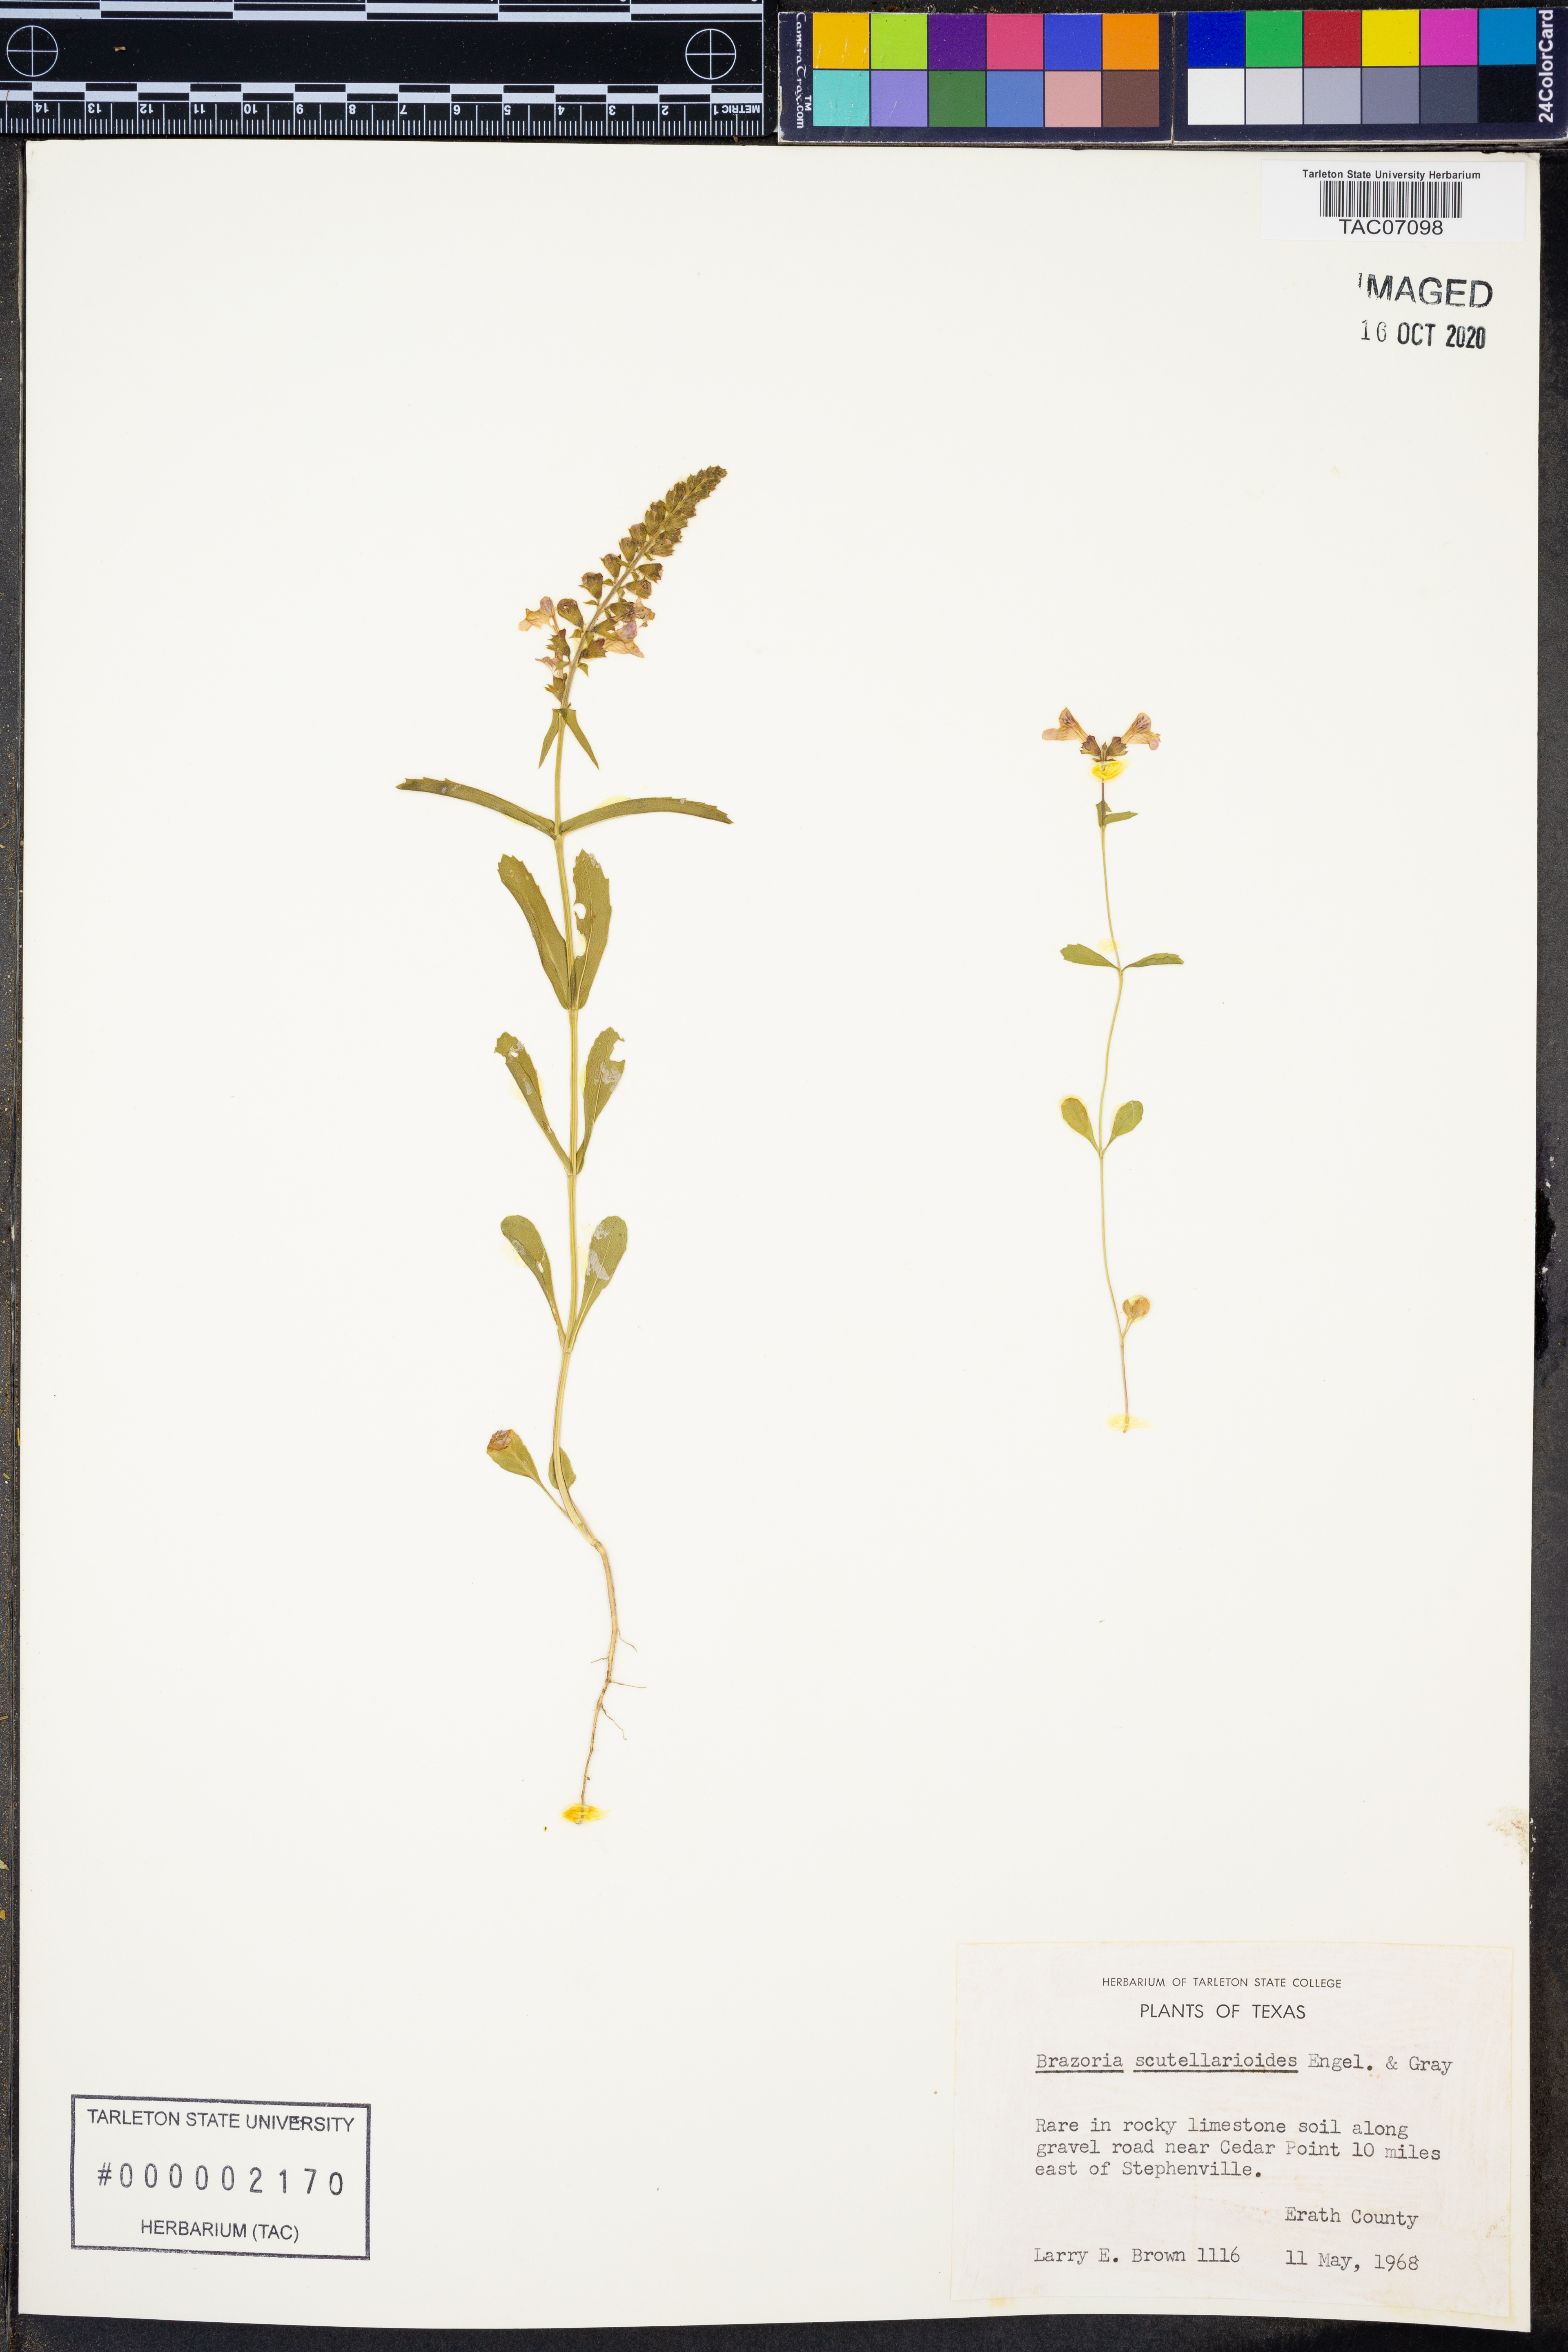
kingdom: Plantae
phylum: Tracheophyta
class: Magnoliopsida
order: Lamiales
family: Lamiaceae
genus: Warnockia
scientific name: Warnockia scutellarioides
